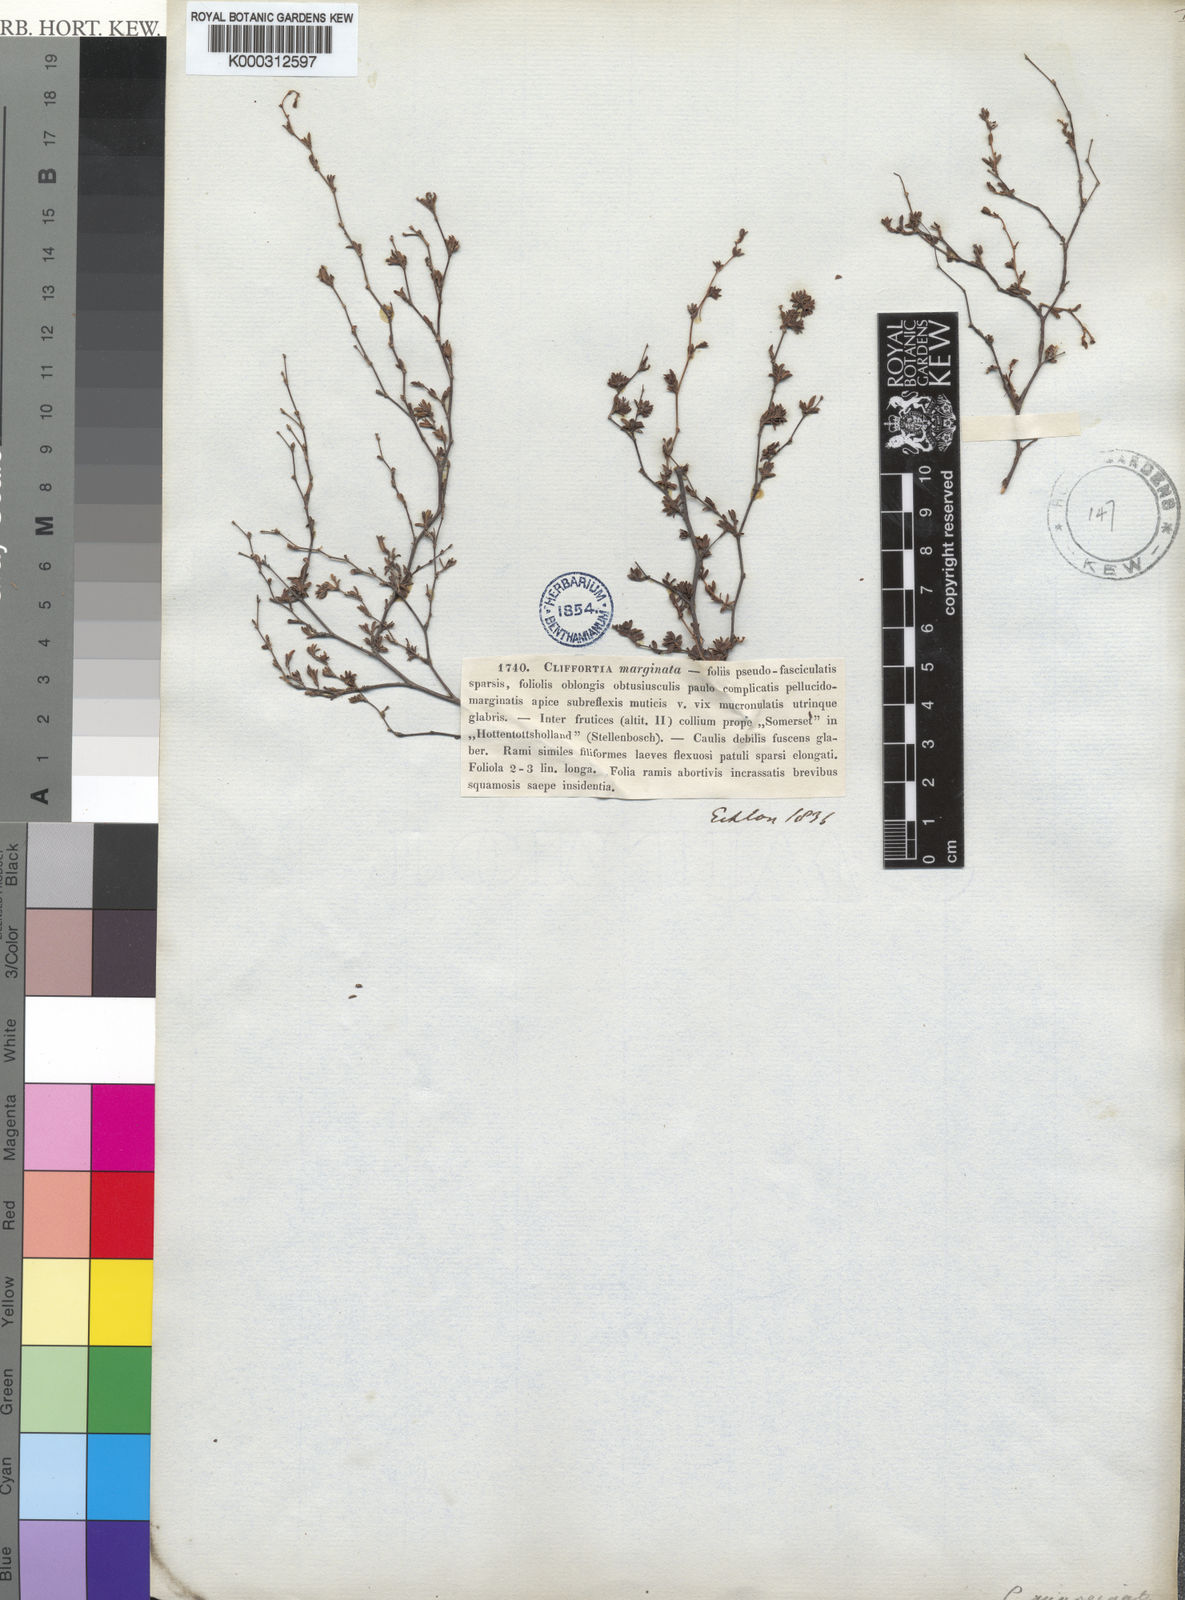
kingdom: Plantae
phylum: Tracheophyta
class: Magnoliopsida
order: Rosales
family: Rosaceae
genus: Cliffortia
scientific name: Cliffortia marginata
